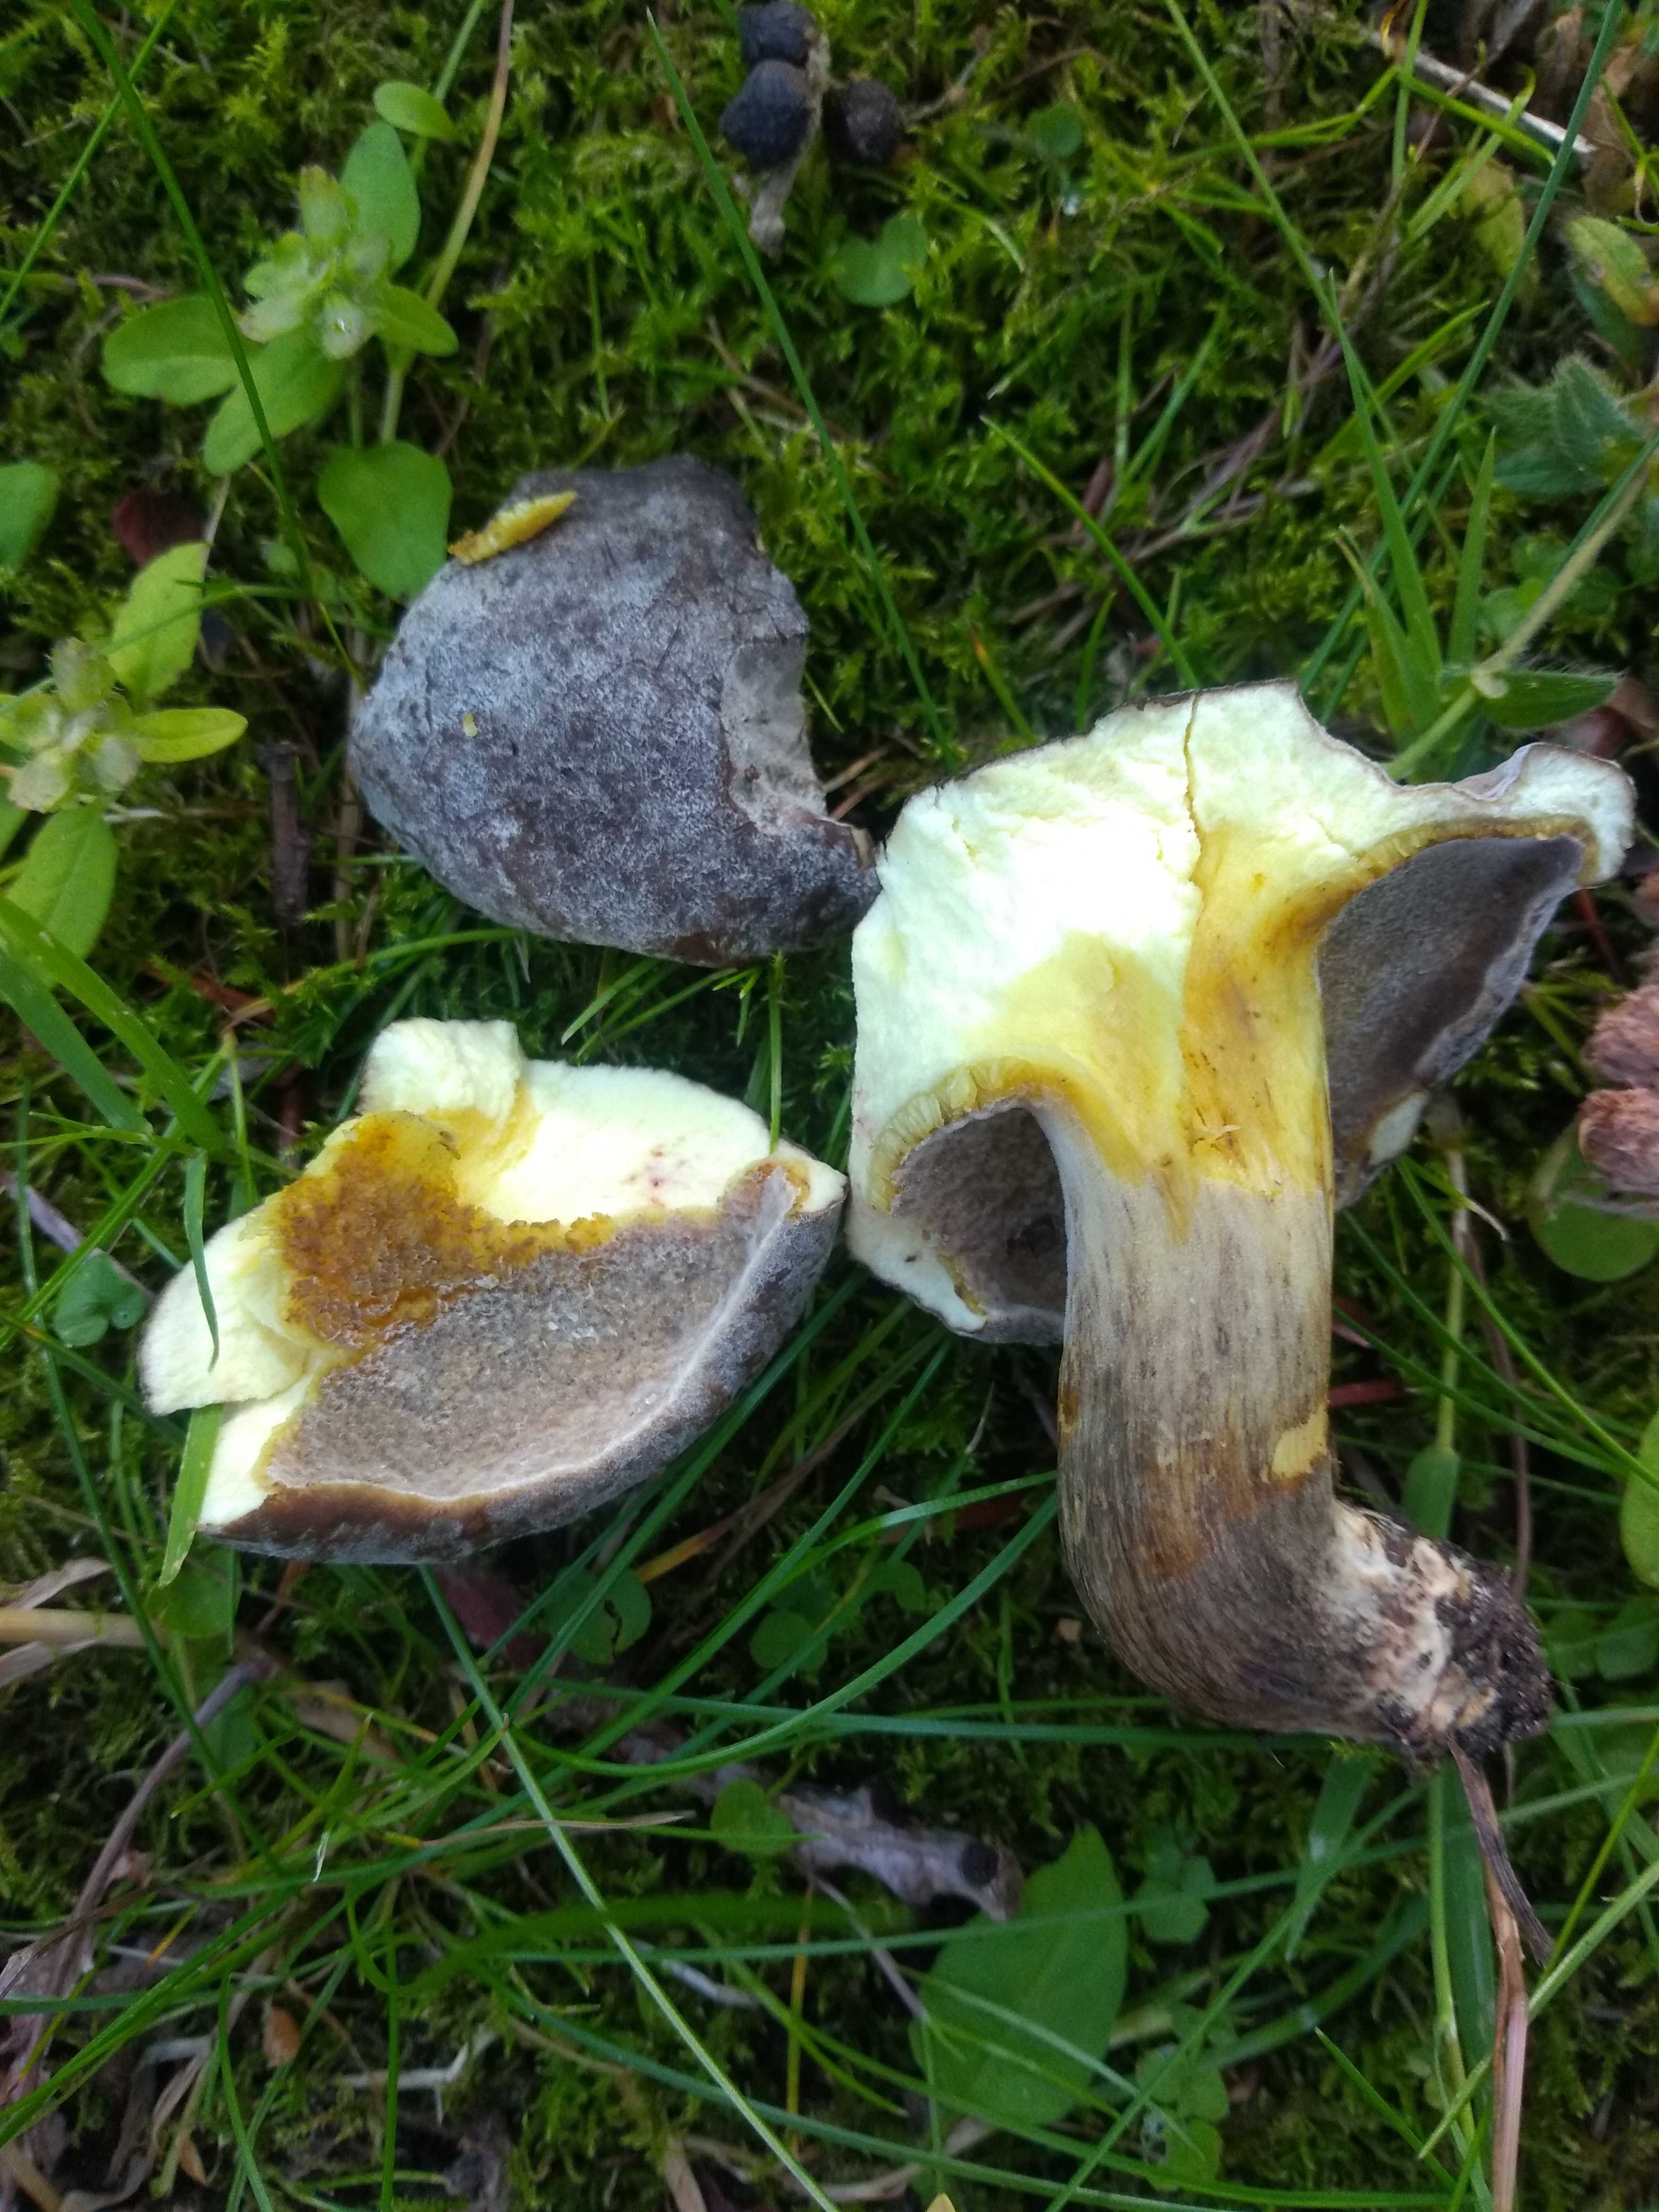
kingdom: Fungi
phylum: Ascomycota
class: Sordariomycetes
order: Hypocreales
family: Hypocreaceae
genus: Hypomyces
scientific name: Hypomyces microspermus
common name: dværgrørhat-snylteskorpe
